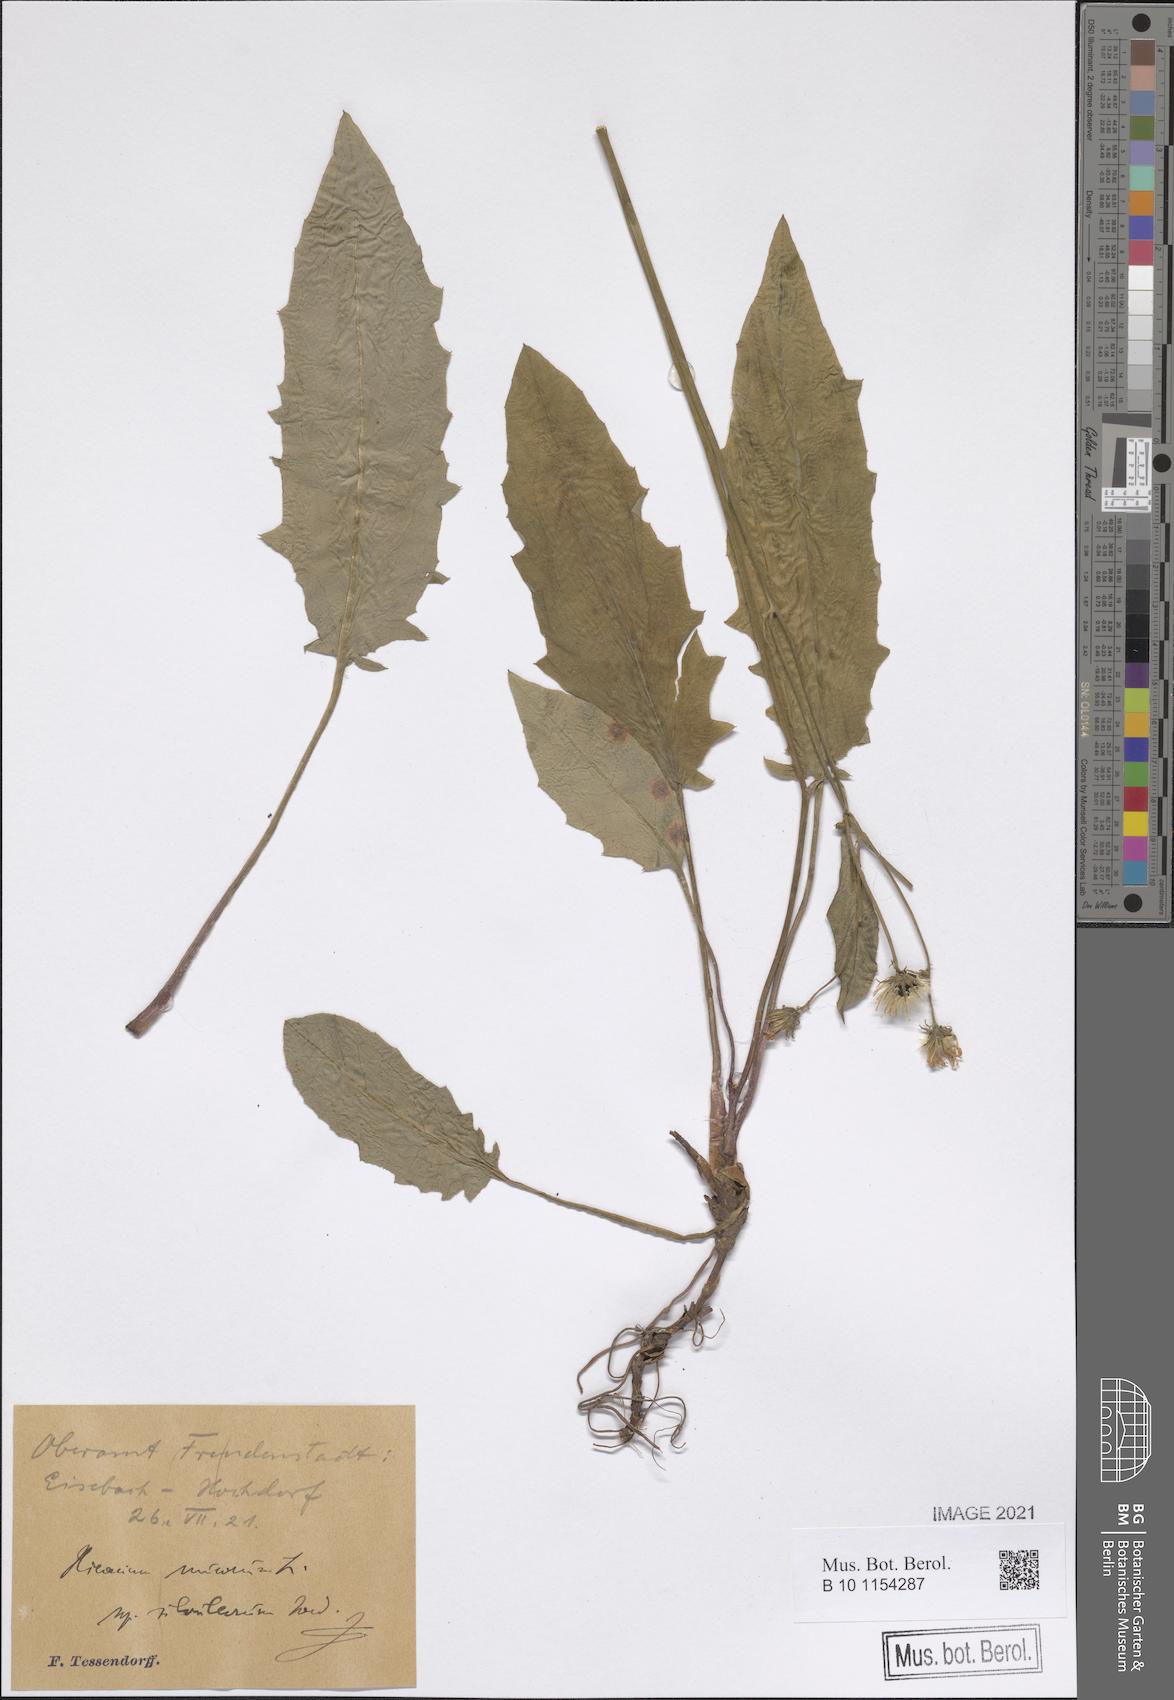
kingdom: Plantae
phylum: Tracheophyta
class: Magnoliopsida
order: Asterales
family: Asteraceae
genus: Hieracium
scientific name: Hieracium murorum
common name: Wall hawkweed
